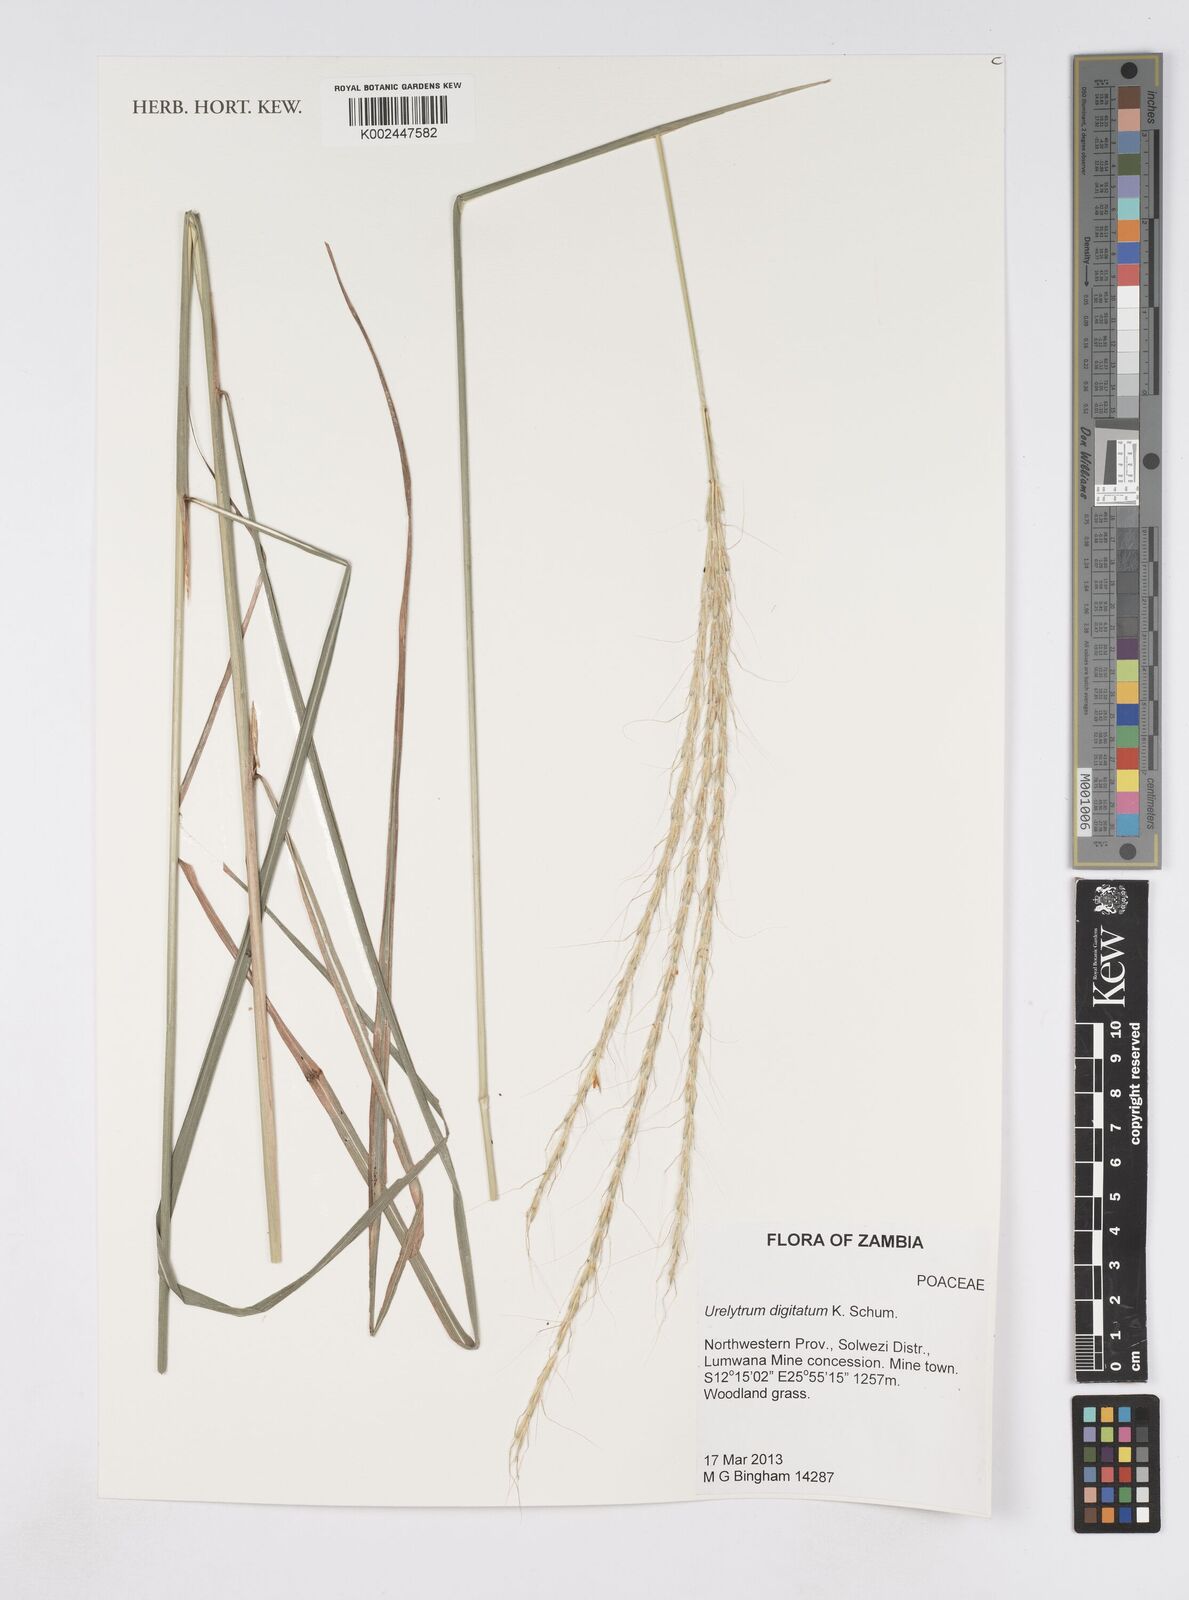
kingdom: Plantae
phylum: Tracheophyta
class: Liliopsida
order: Poales
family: Poaceae
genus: Urelytrum
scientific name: Urelytrum digitatum
